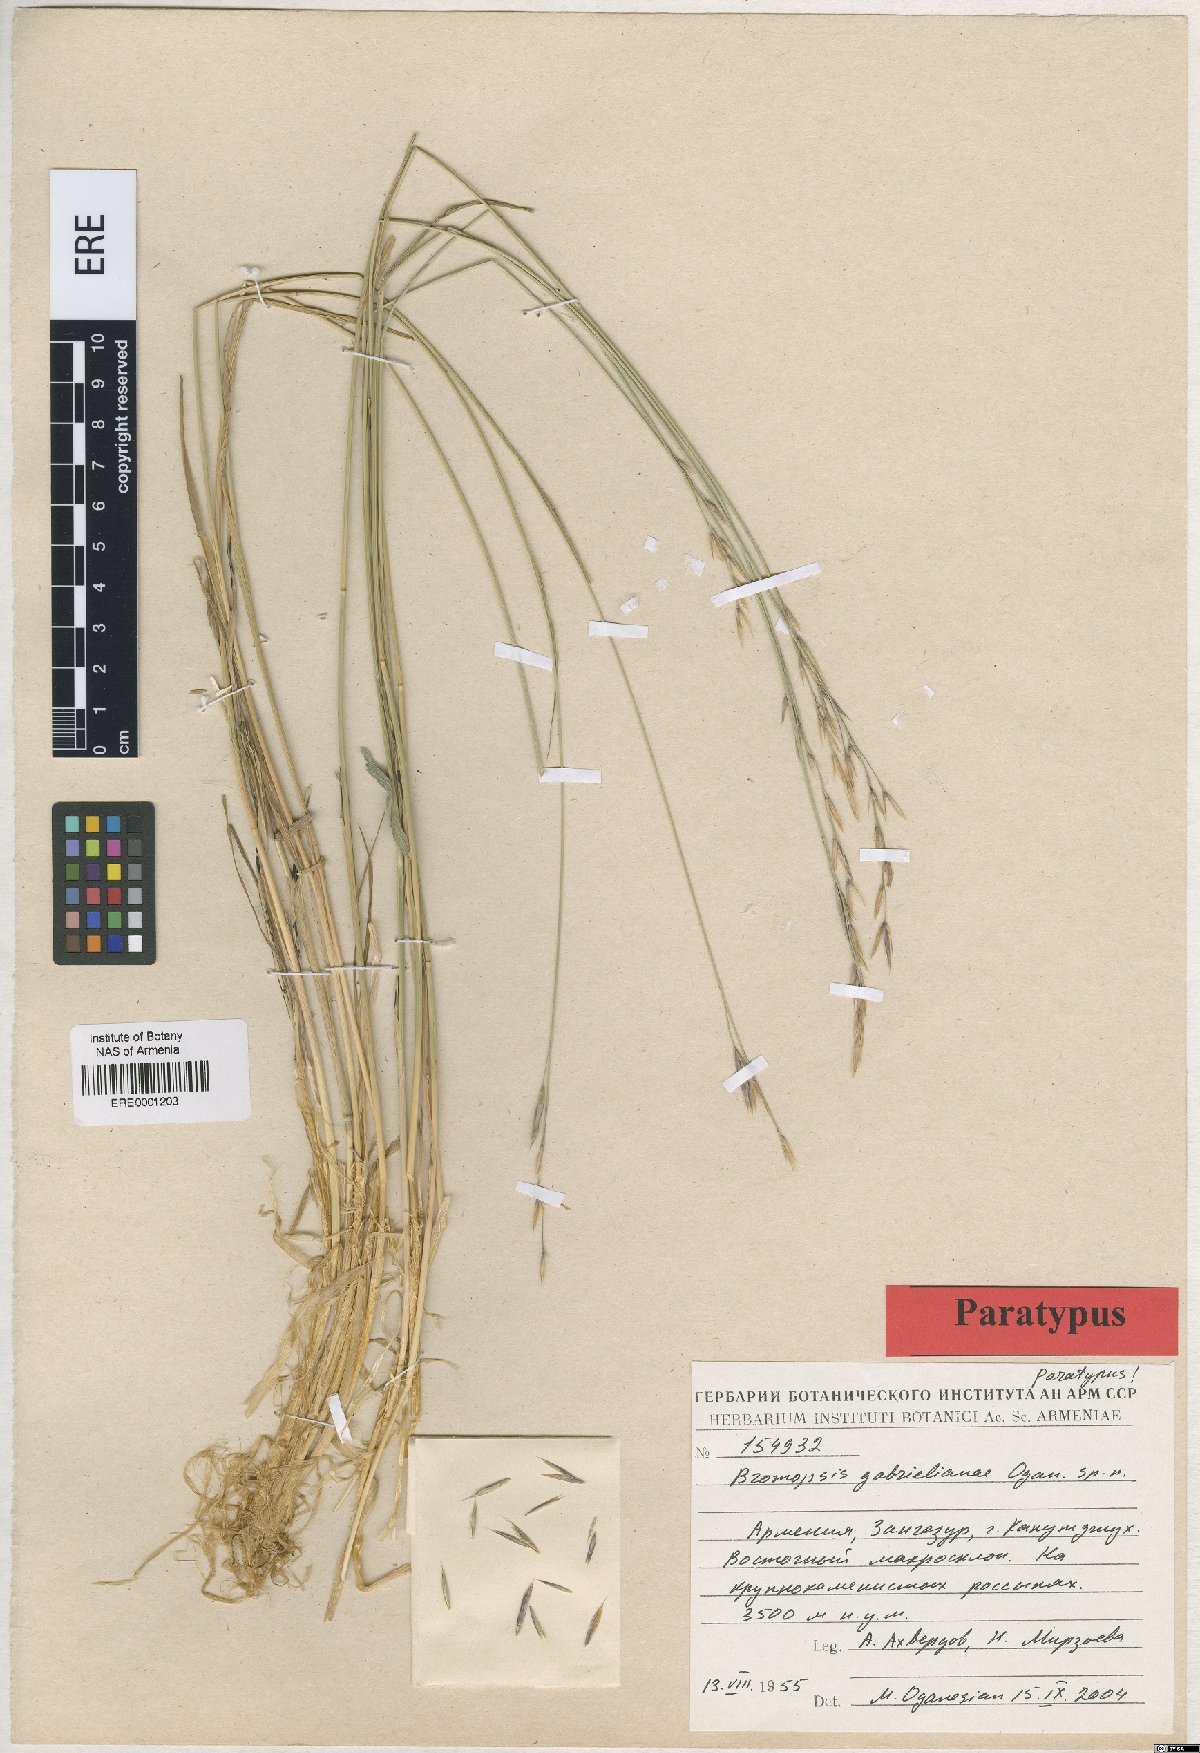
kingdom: Plantae
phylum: Tracheophyta
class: Liliopsida
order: Poales
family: Poaceae
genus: Bromus
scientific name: Bromus tomentosus
